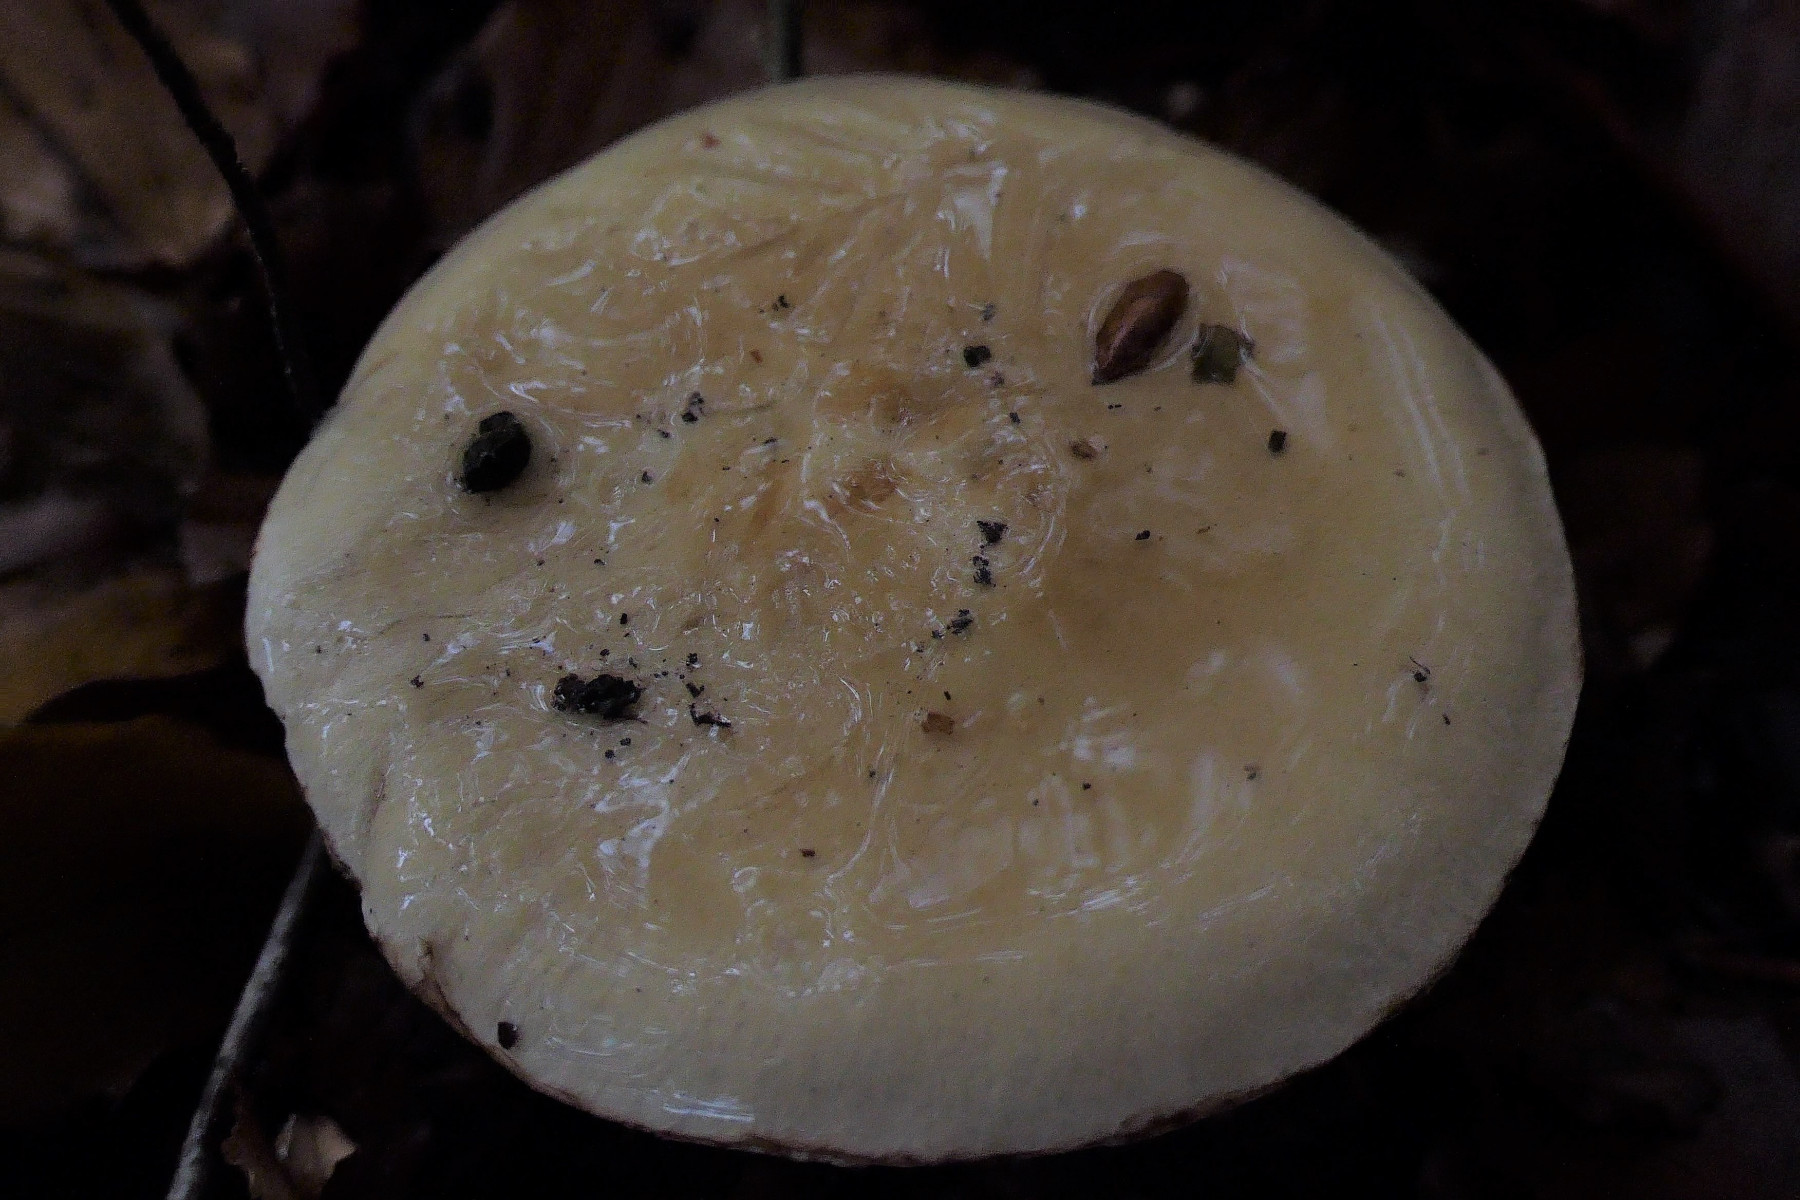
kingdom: Fungi
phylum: Basidiomycota
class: Agaricomycetes
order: Agaricales
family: Cortinariaceae
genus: Cortinarius
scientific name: Cortinarius anserinus
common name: bøge-slørhat
